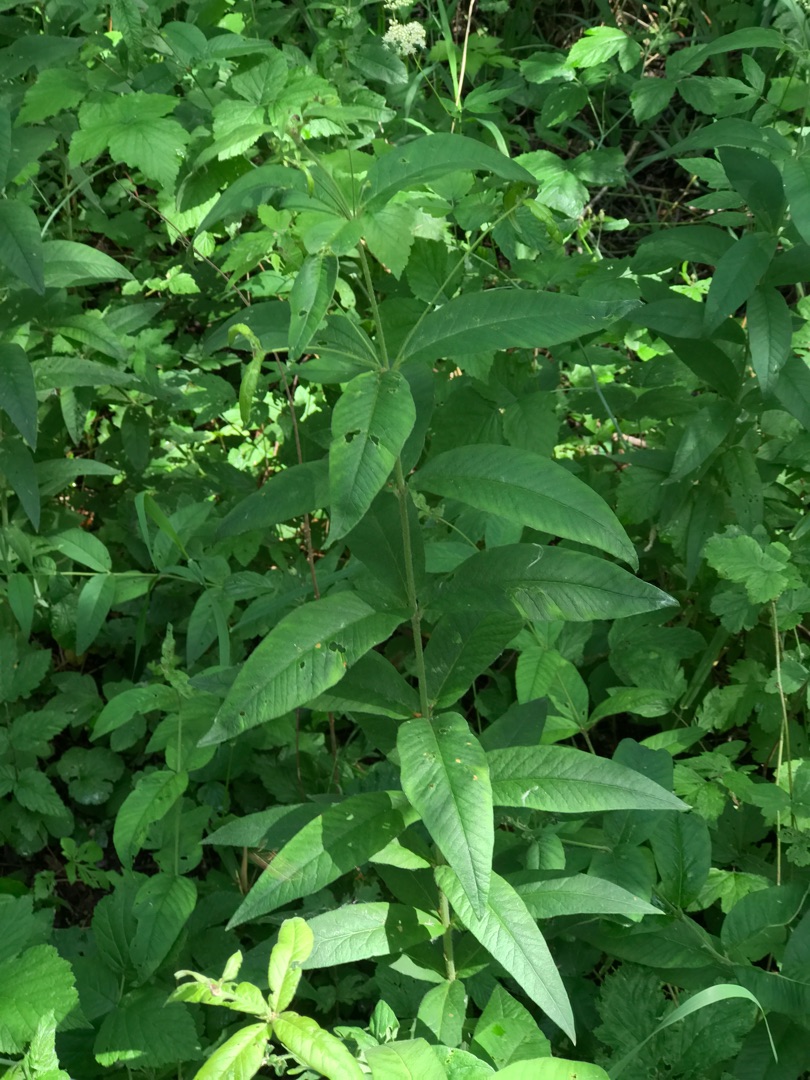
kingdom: Plantae
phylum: Tracheophyta
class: Magnoliopsida
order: Ericales
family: Primulaceae
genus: Lysimachia
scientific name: Lysimachia vulgaris
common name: Almindelig fredløs
